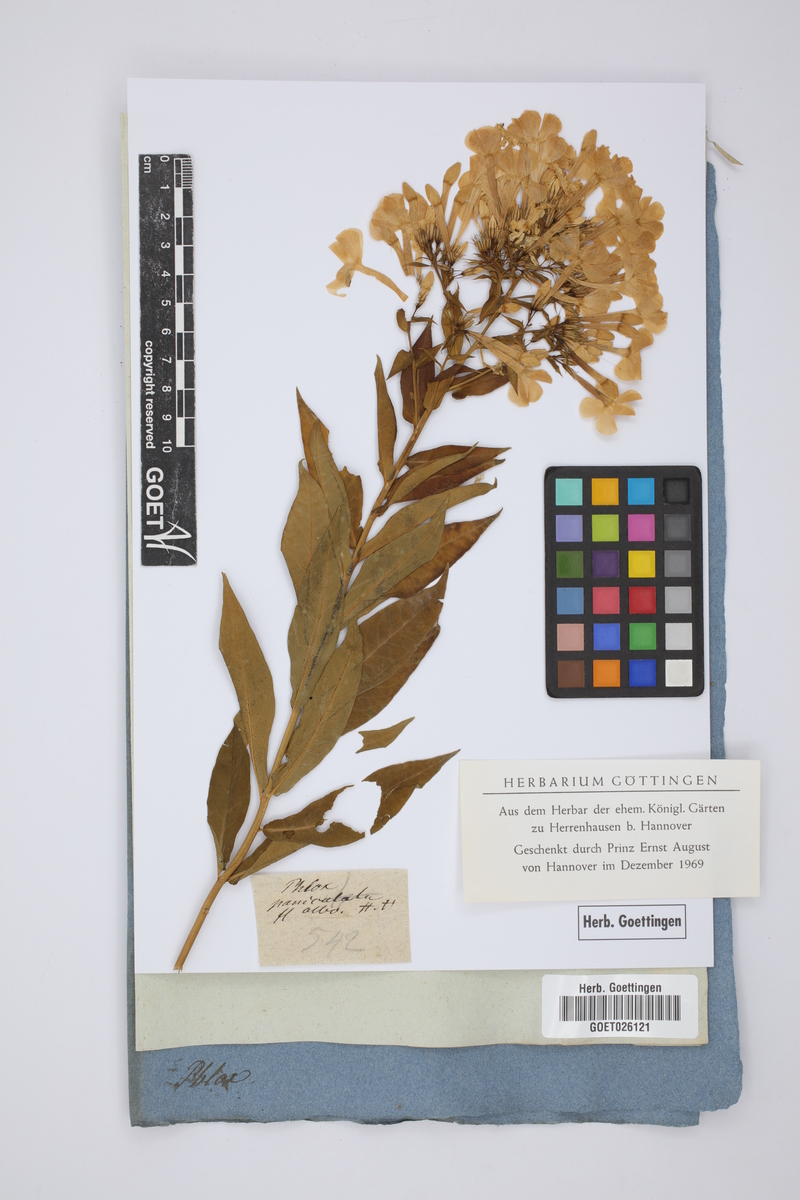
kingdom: Plantae
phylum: Tracheophyta
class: Magnoliopsida
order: Ericales
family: Polemoniaceae
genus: Phlox
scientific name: Phlox paniculata
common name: Fall phlox
